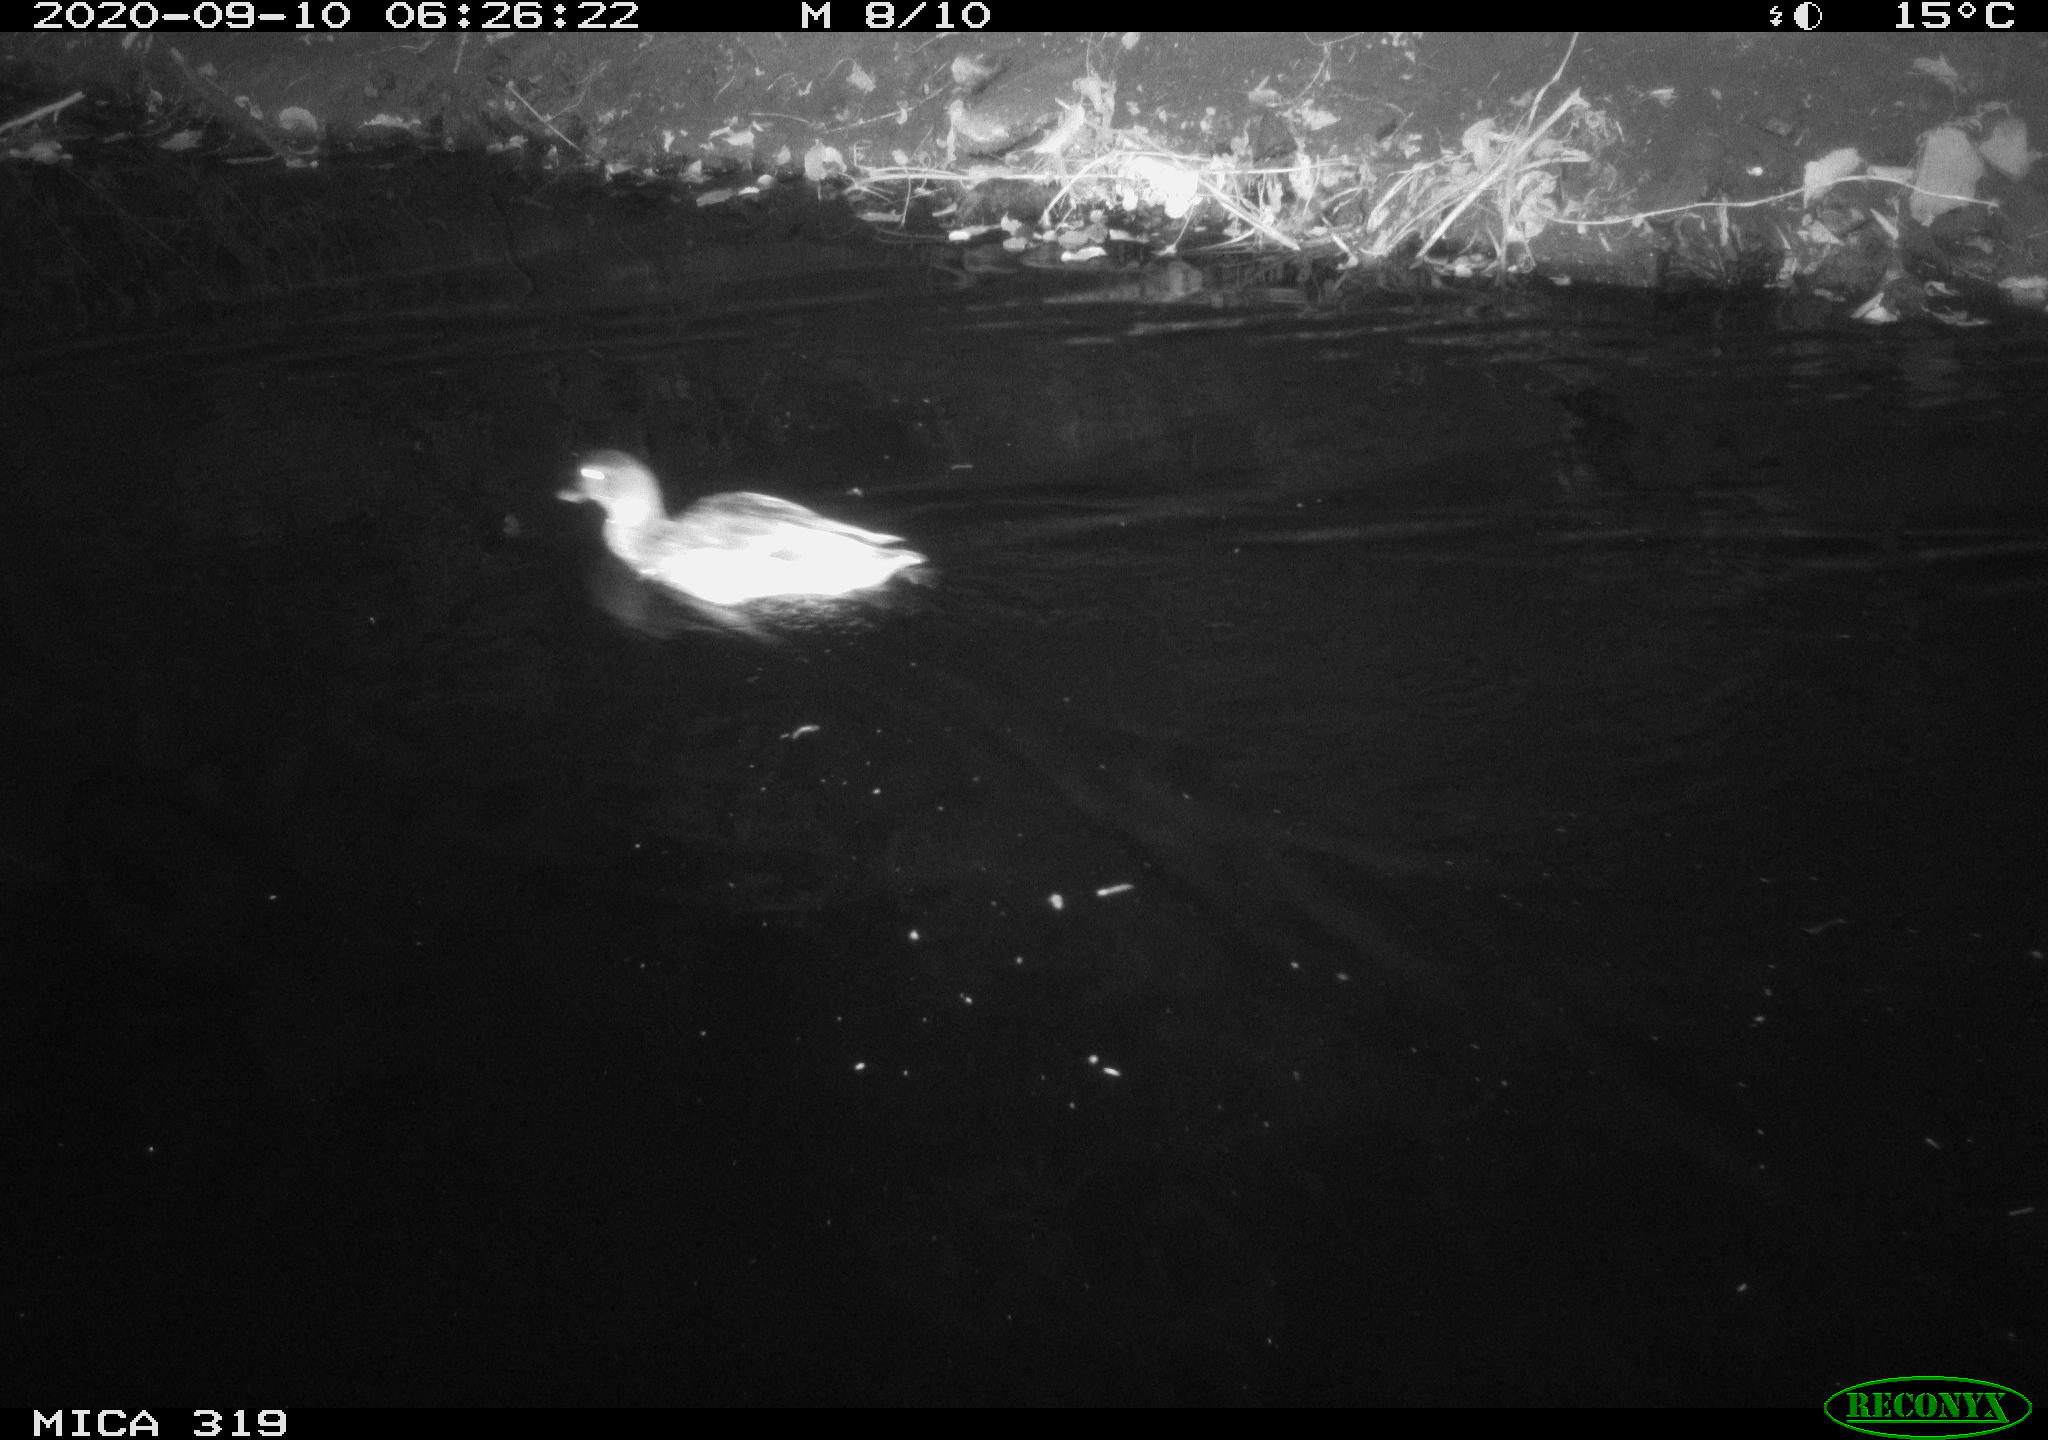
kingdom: Animalia
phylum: Chordata
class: Aves
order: Anseriformes
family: Anatidae
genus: Anas
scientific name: Anas platyrhynchos
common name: Mallard
